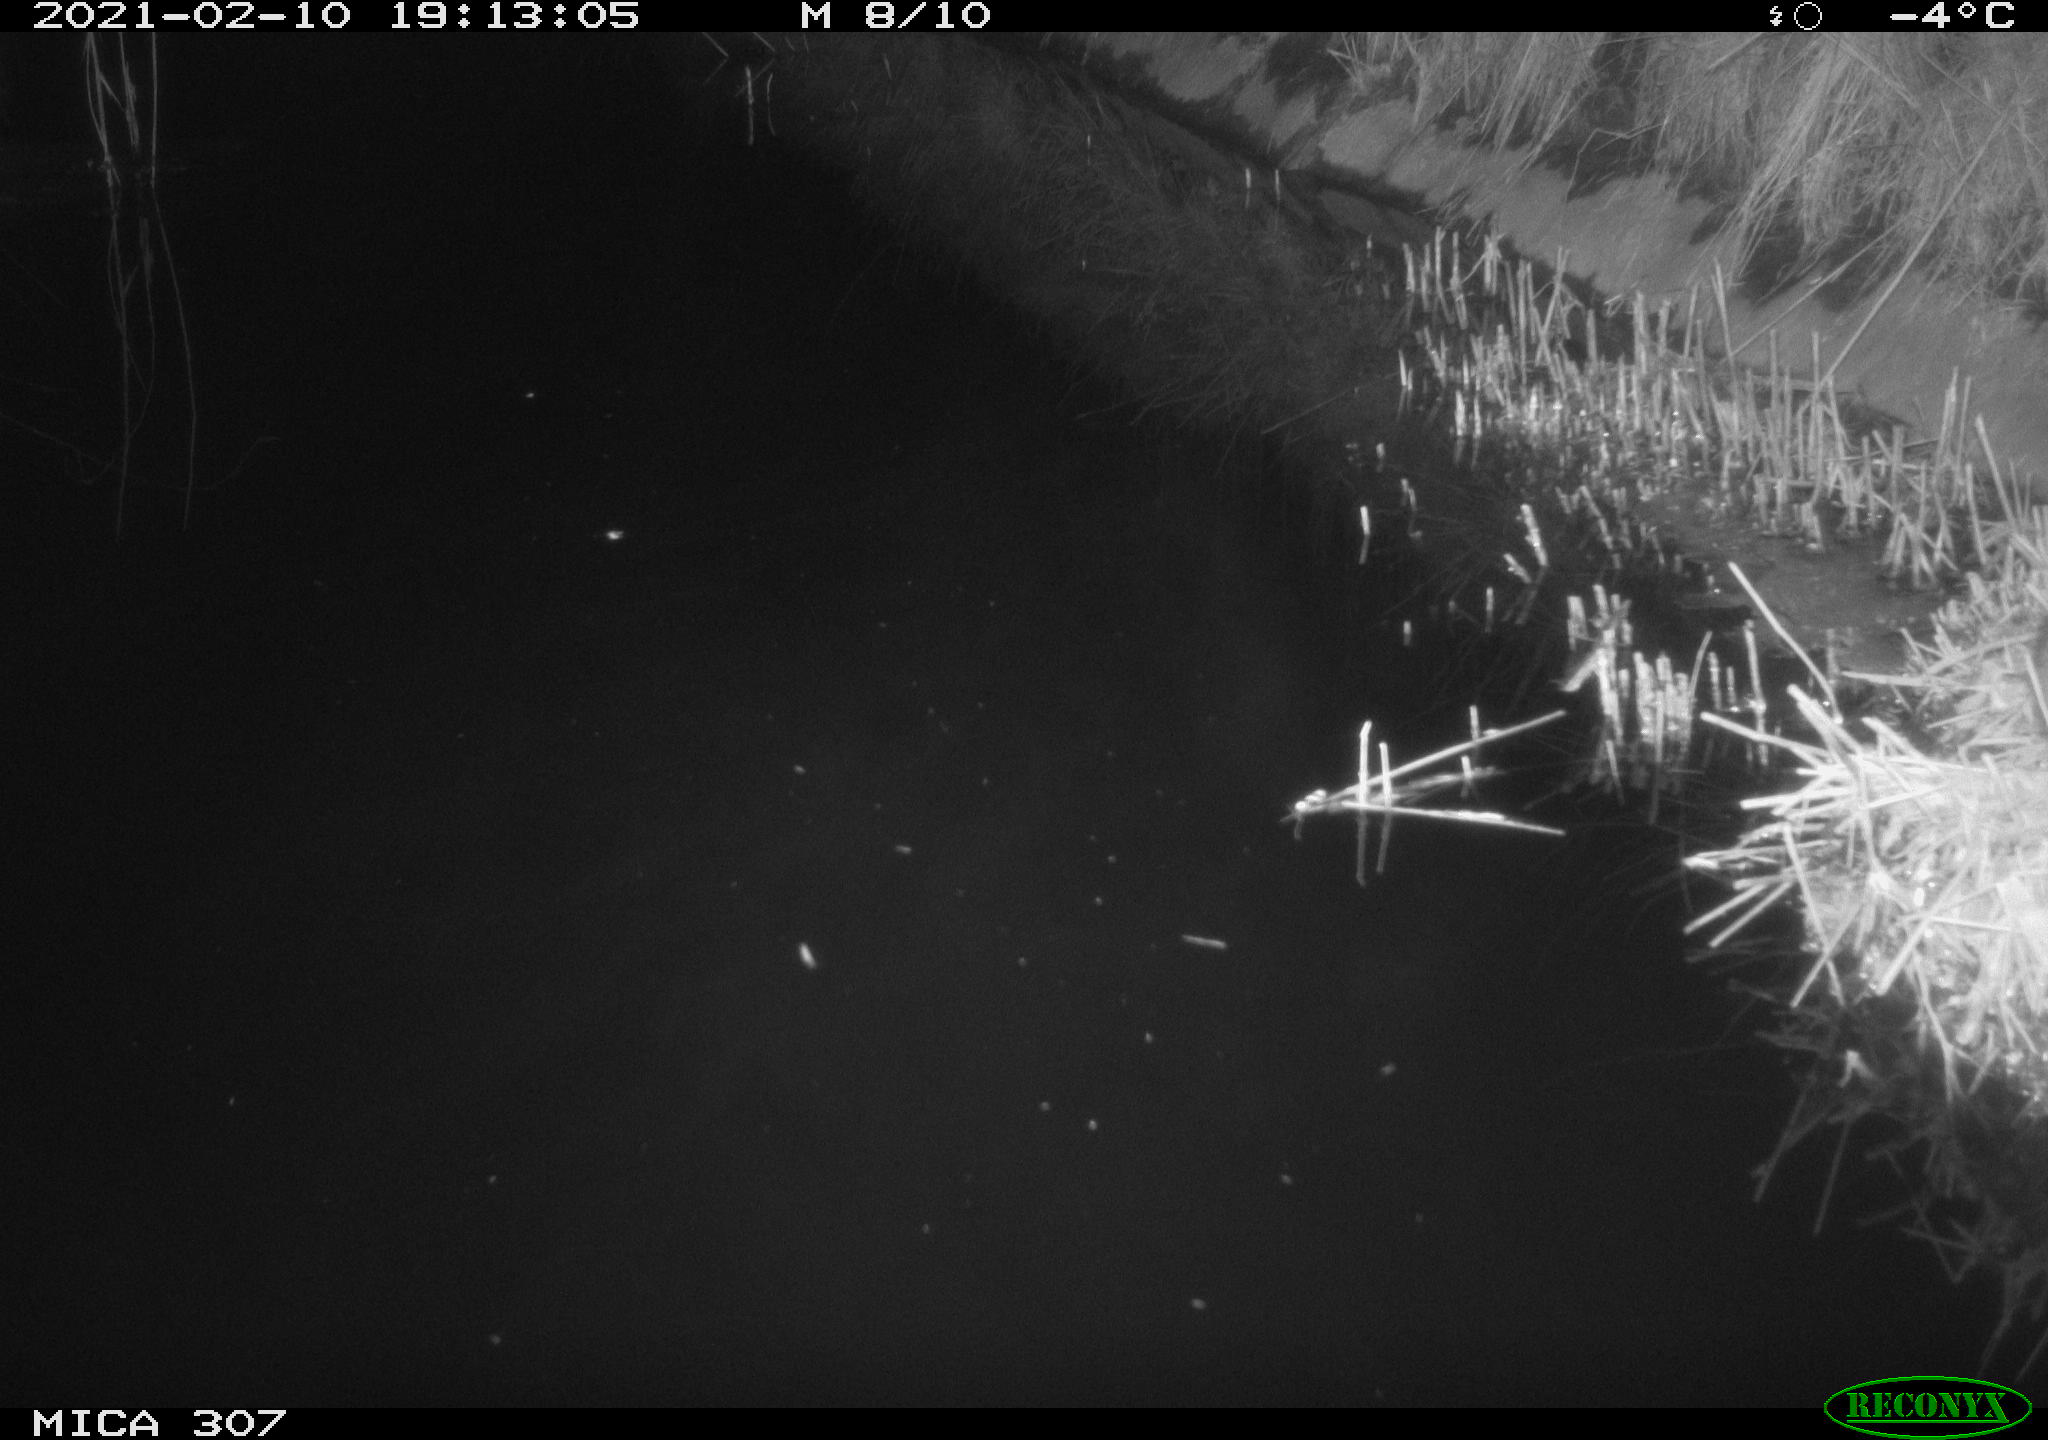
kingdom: Animalia
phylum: Chordata
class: Mammalia
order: Rodentia
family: Muridae
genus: Rattus
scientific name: Rattus norvegicus
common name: Brown rat
